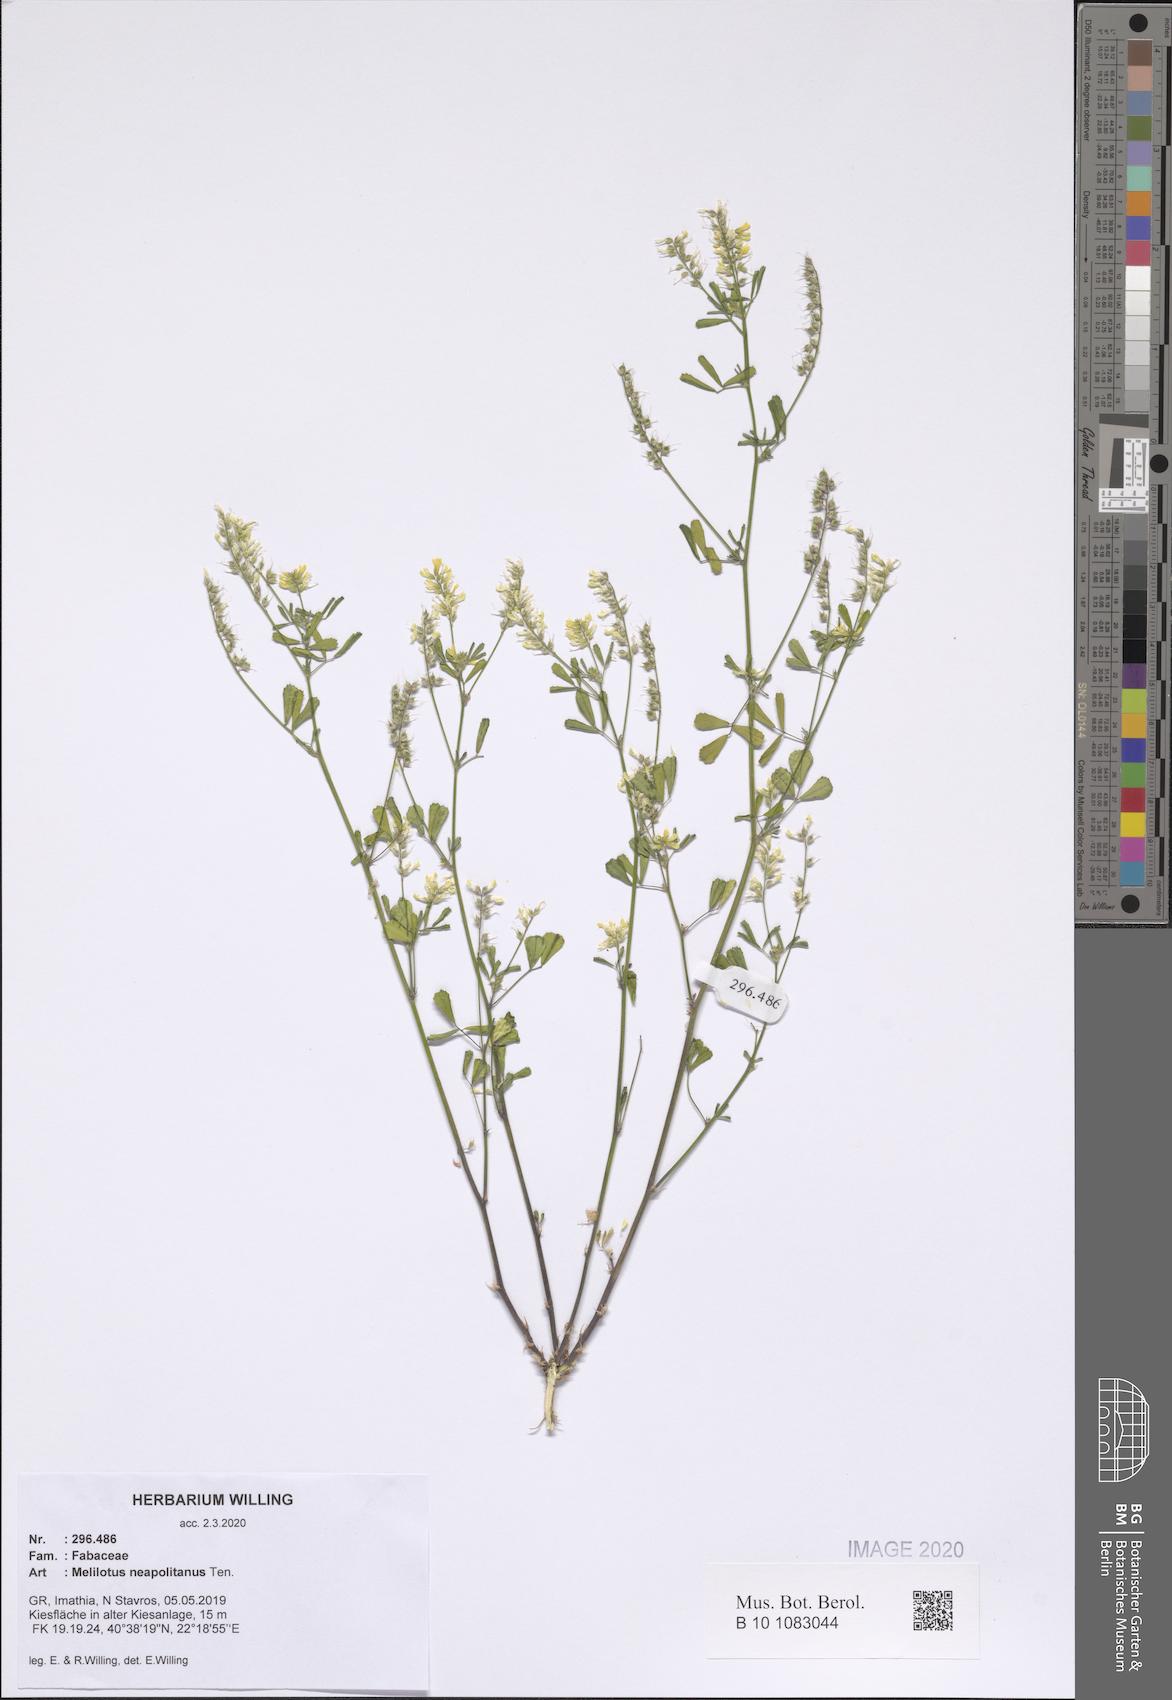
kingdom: Plantae
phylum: Tracheophyta
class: Magnoliopsida
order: Fabales
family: Fabaceae
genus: Melilotus
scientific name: Melilotus neapolitanus
